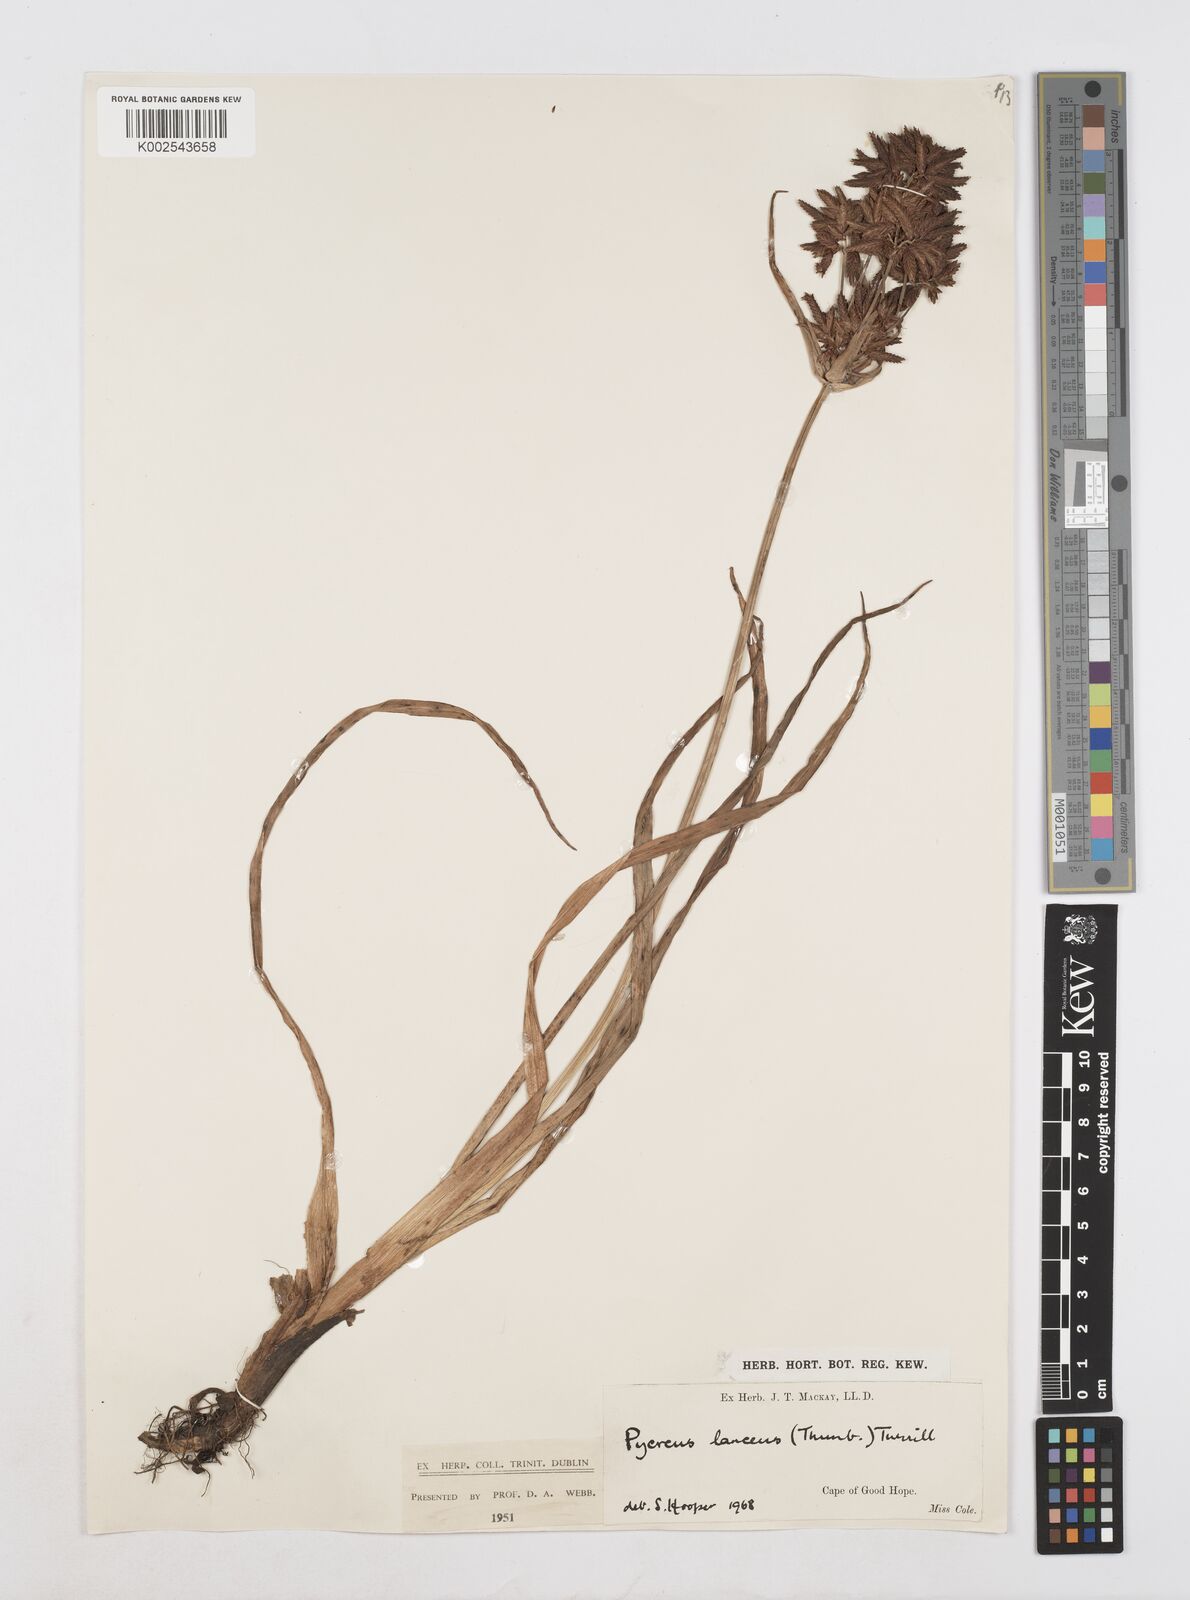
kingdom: Plantae
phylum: Tracheophyta
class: Liliopsida
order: Poales
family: Cyperaceae
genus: Cyperus
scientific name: Cyperus nitidus
